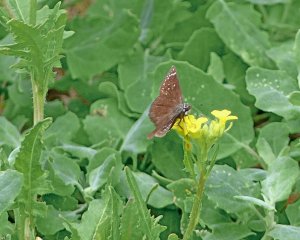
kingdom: Animalia
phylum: Arthropoda
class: Insecta
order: Lepidoptera
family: Hesperiidae
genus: Pholisora
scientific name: Pholisora catullus
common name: Common Sootywing
